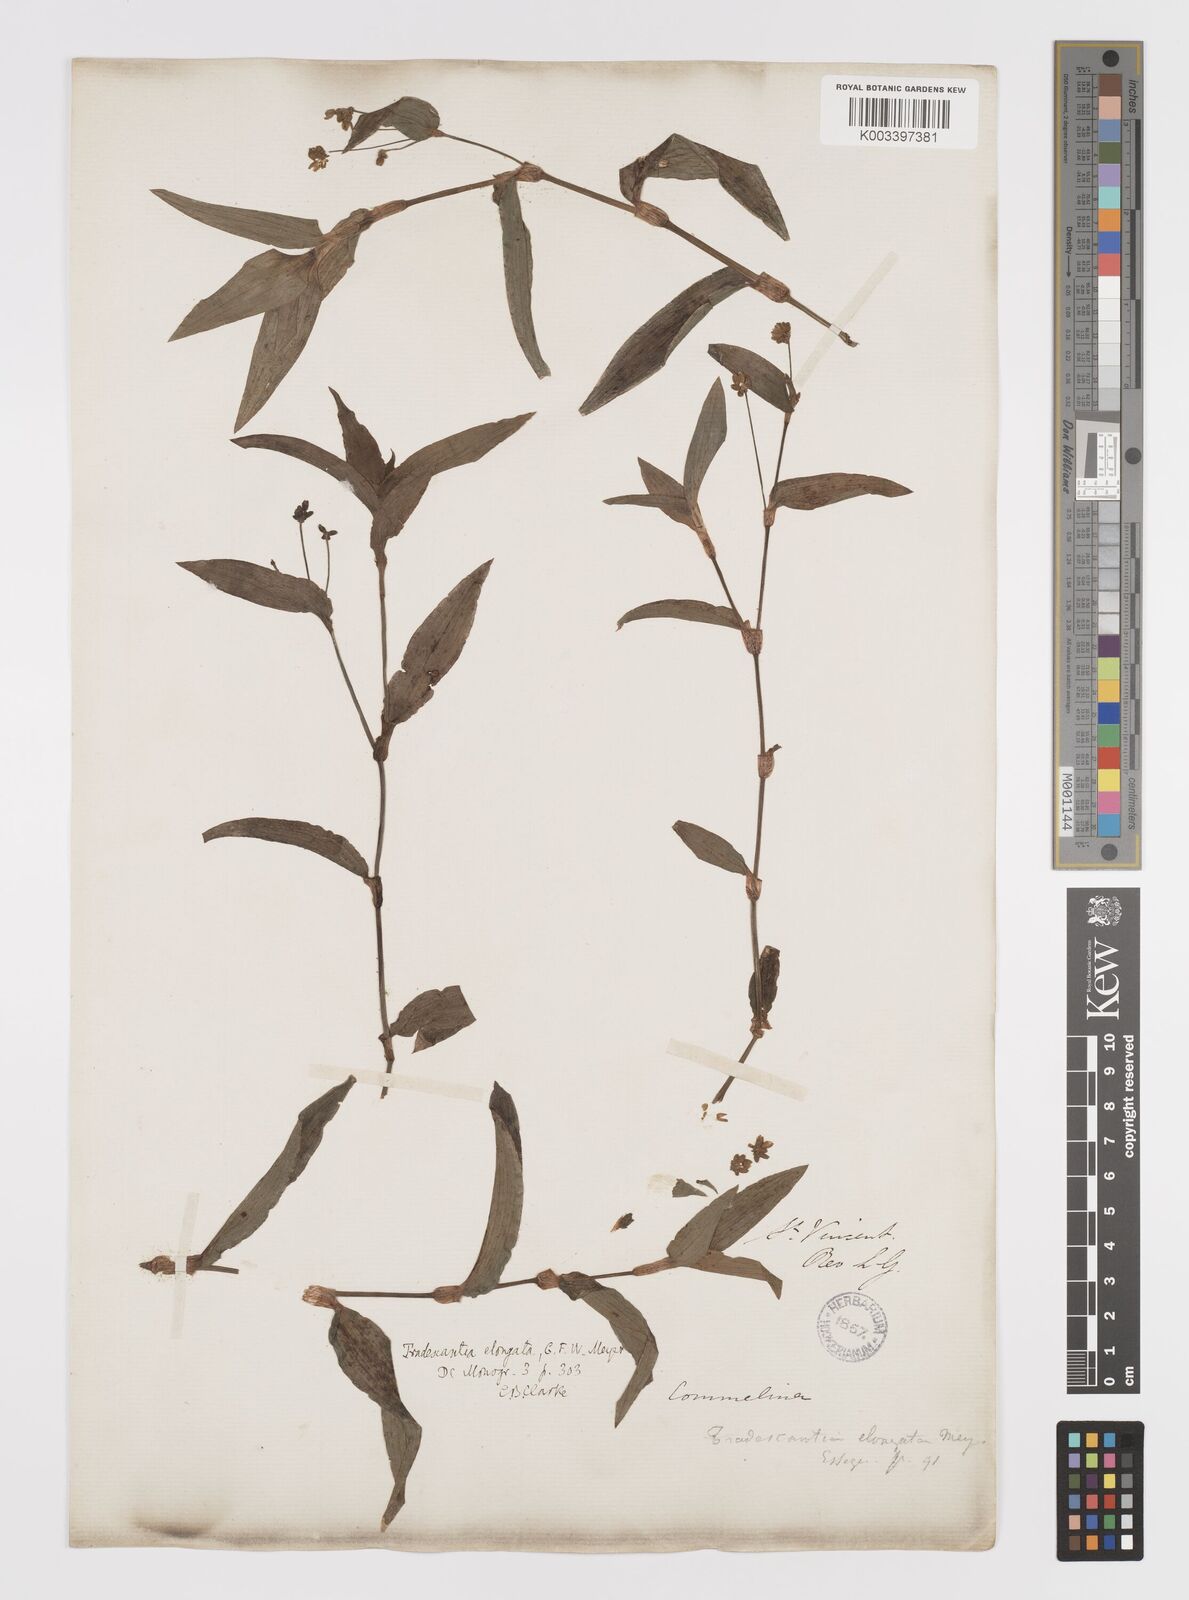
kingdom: Plantae
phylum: Tracheophyta
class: Liliopsida
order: Commelinales
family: Commelinaceae
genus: Callisia
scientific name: Callisia
